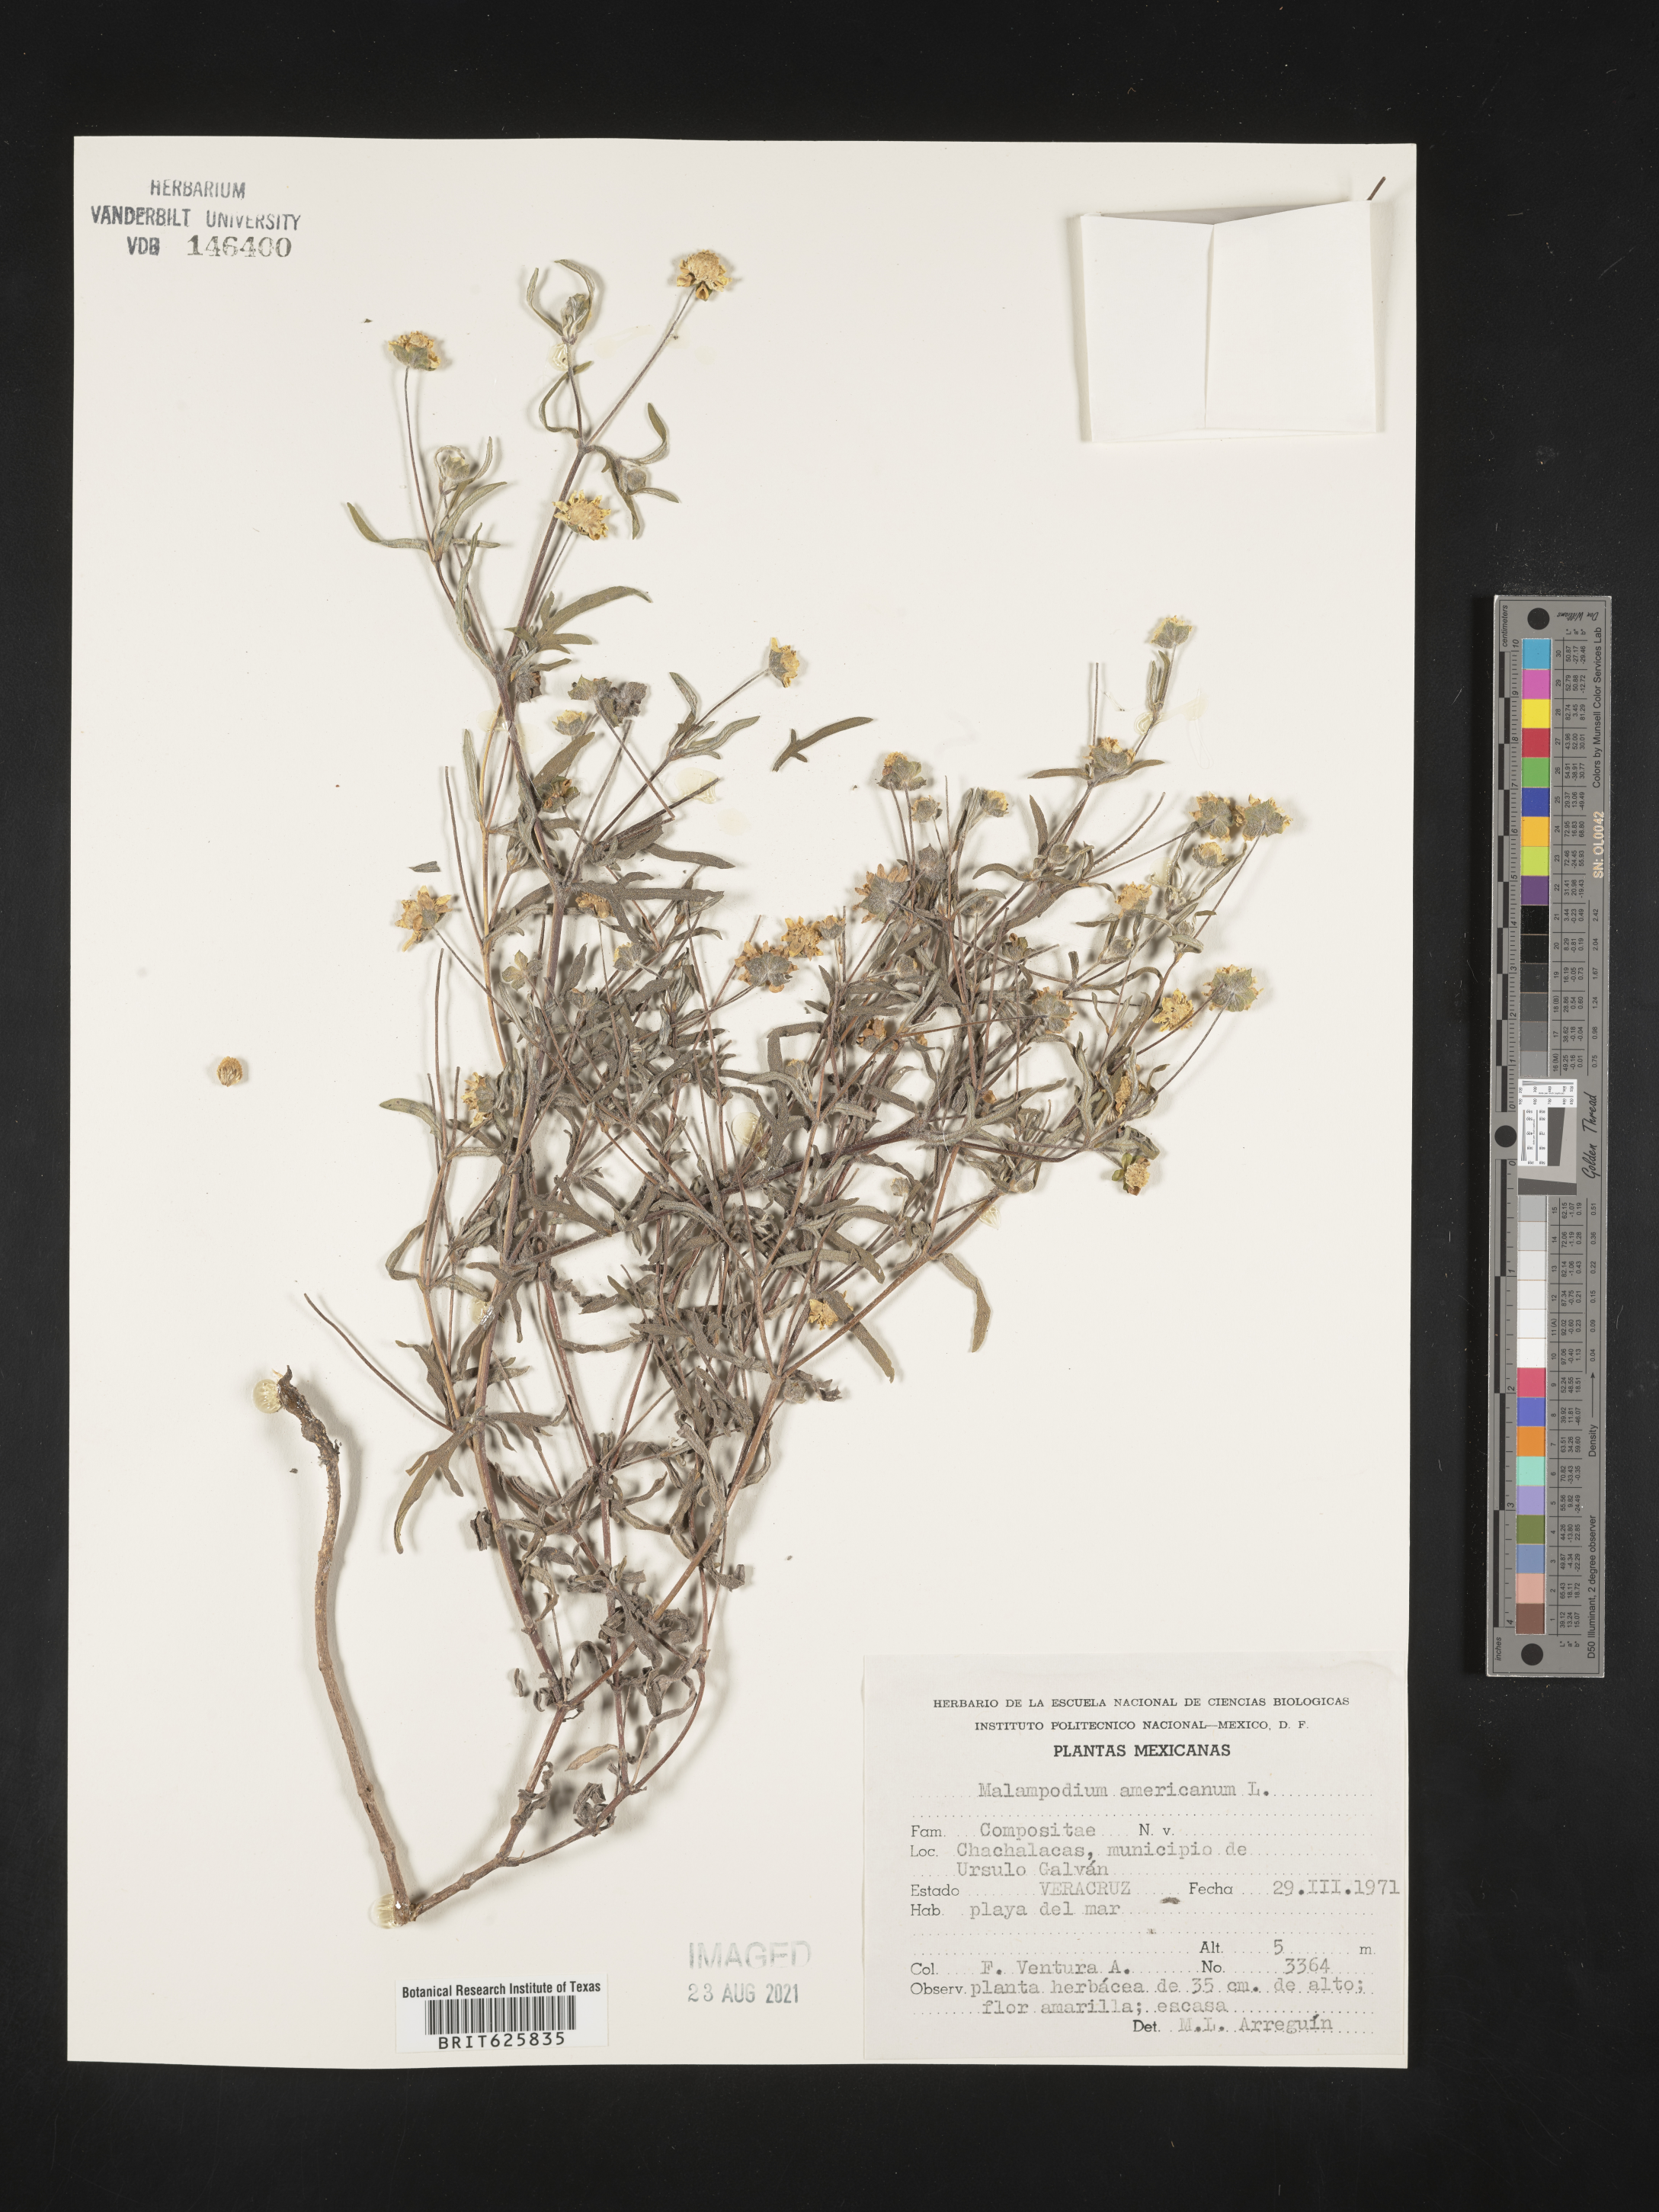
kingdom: Plantae
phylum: Tracheophyta
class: Magnoliopsida
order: Asterales
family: Asteraceae
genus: Melampodium
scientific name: Melampodium
